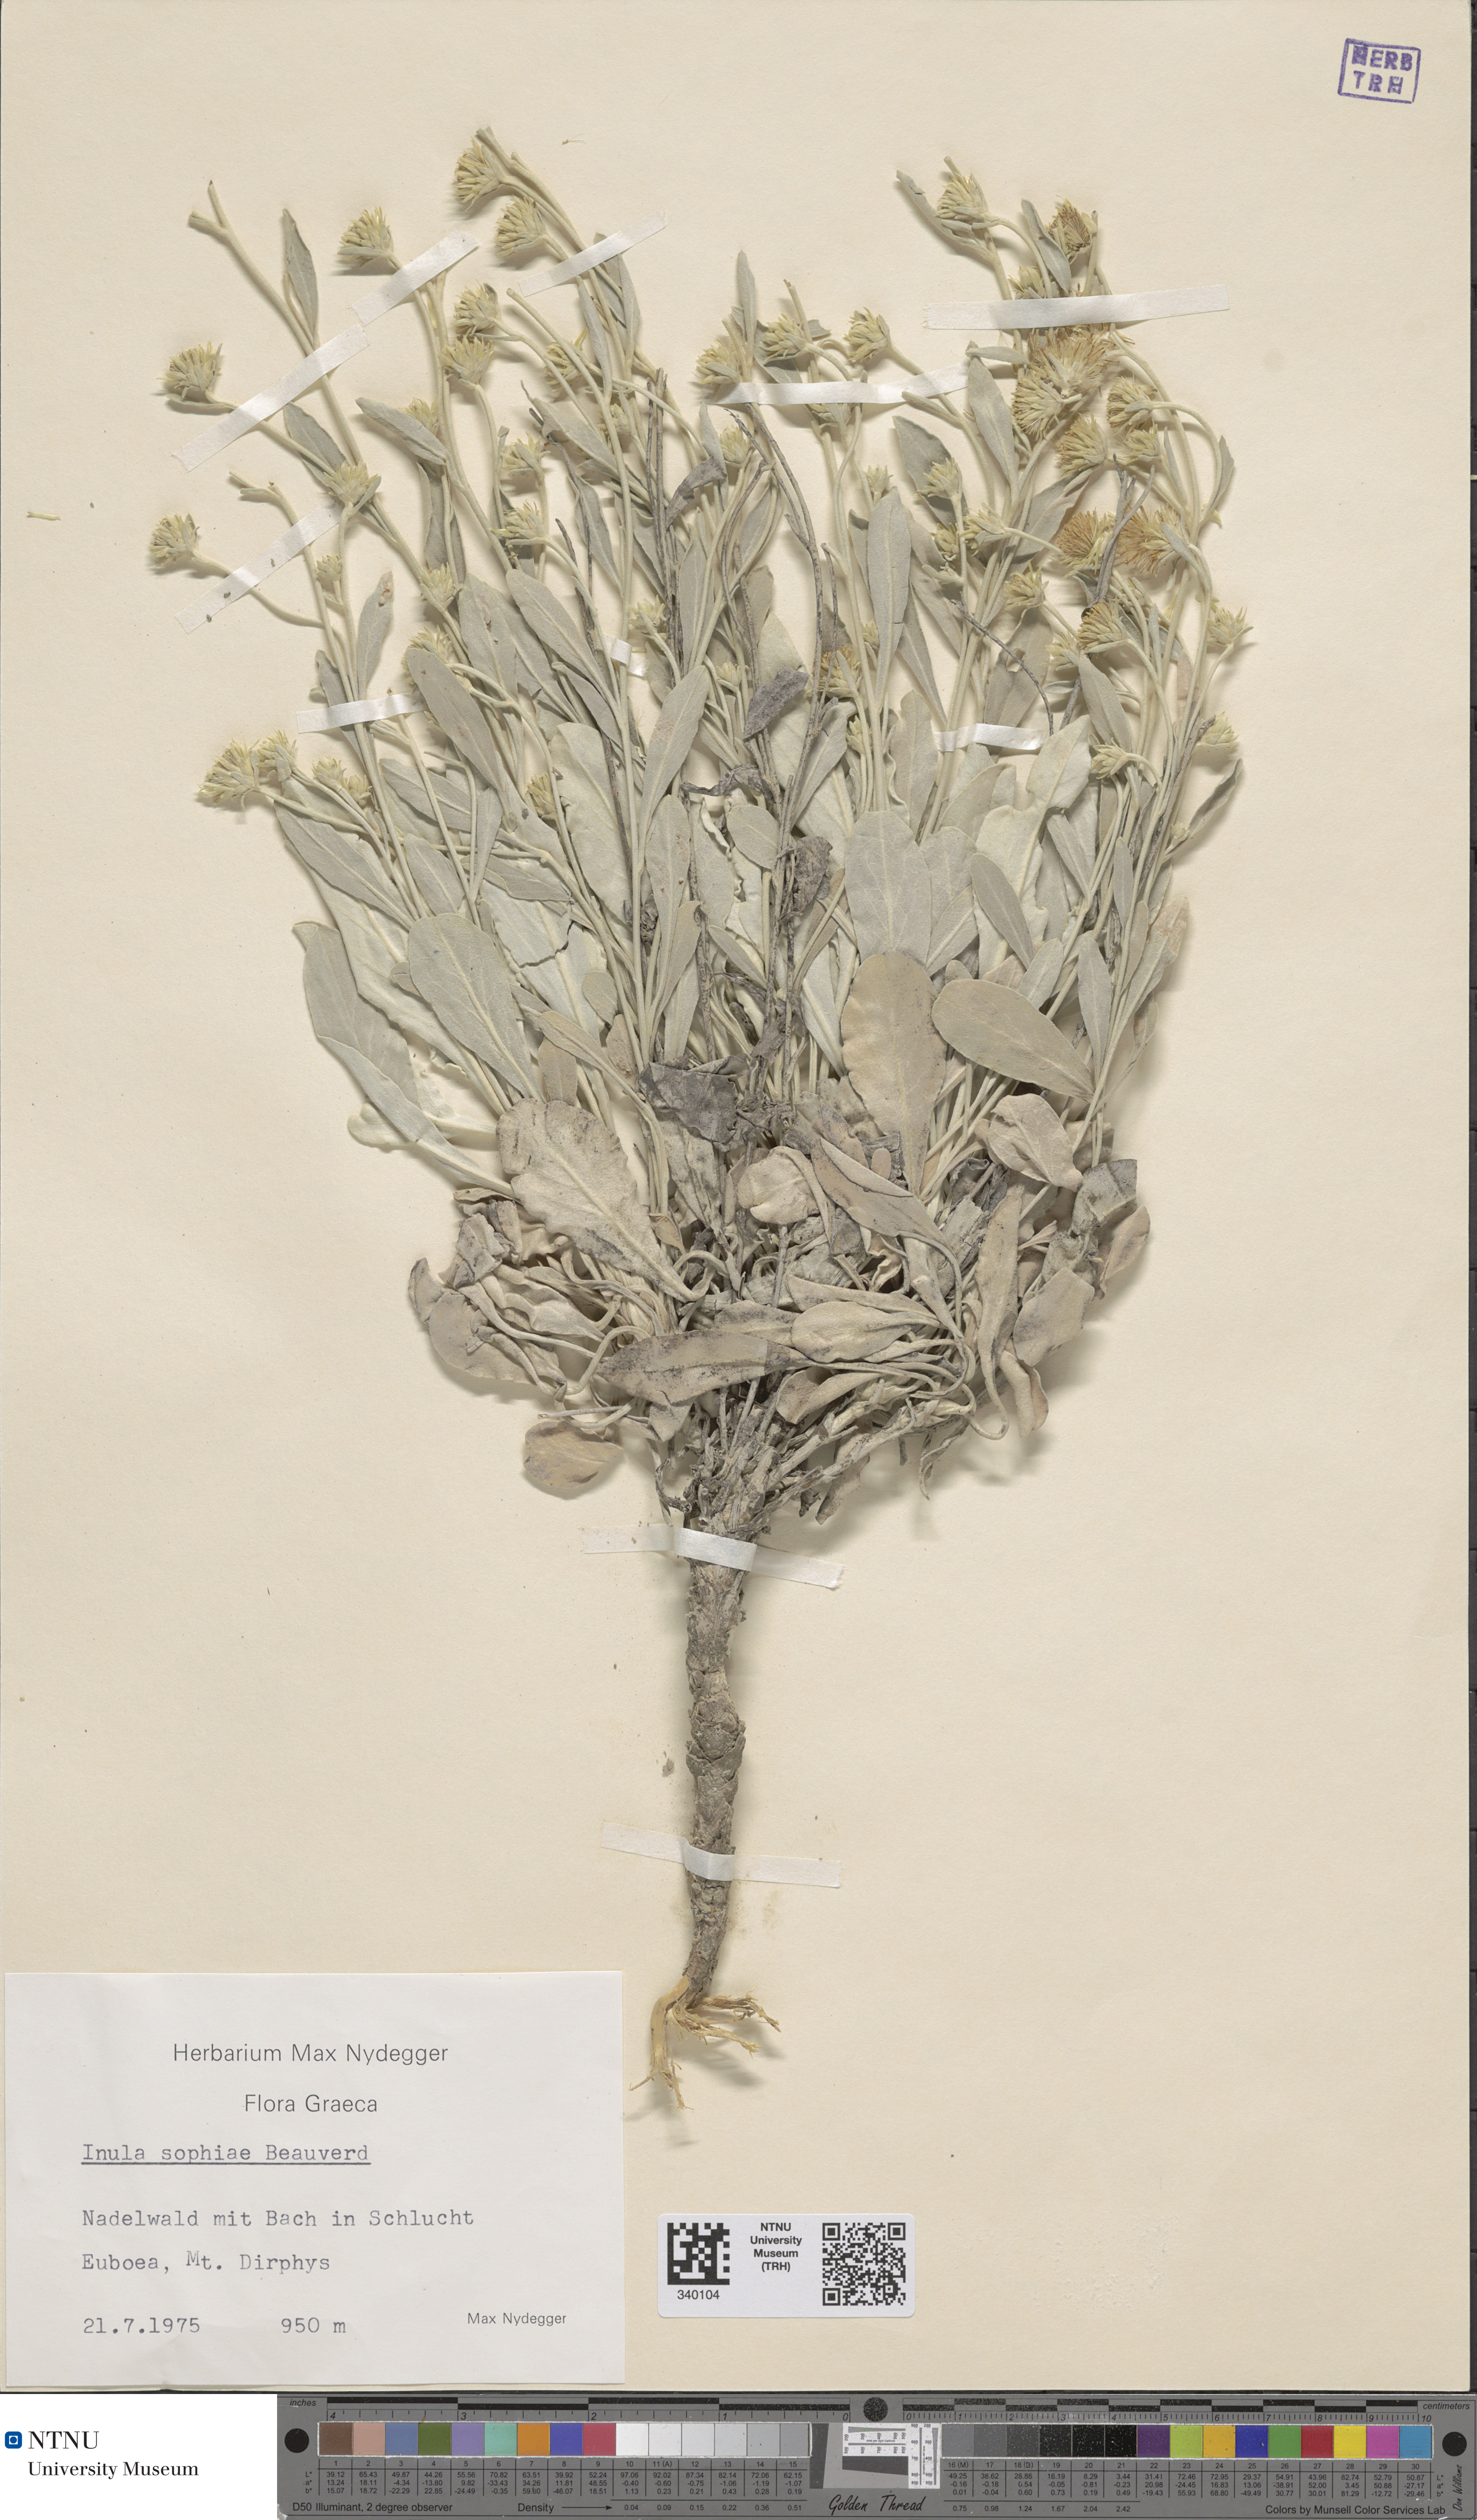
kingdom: Plantae
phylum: Tracheophyta
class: Magnoliopsida
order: Asterales
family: Asteraceae
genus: Inula
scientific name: Inula candida
